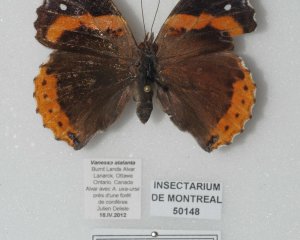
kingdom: Animalia
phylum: Arthropoda
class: Insecta
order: Lepidoptera
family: Nymphalidae
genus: Vanessa
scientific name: Vanessa atalanta
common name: Red Admiral
